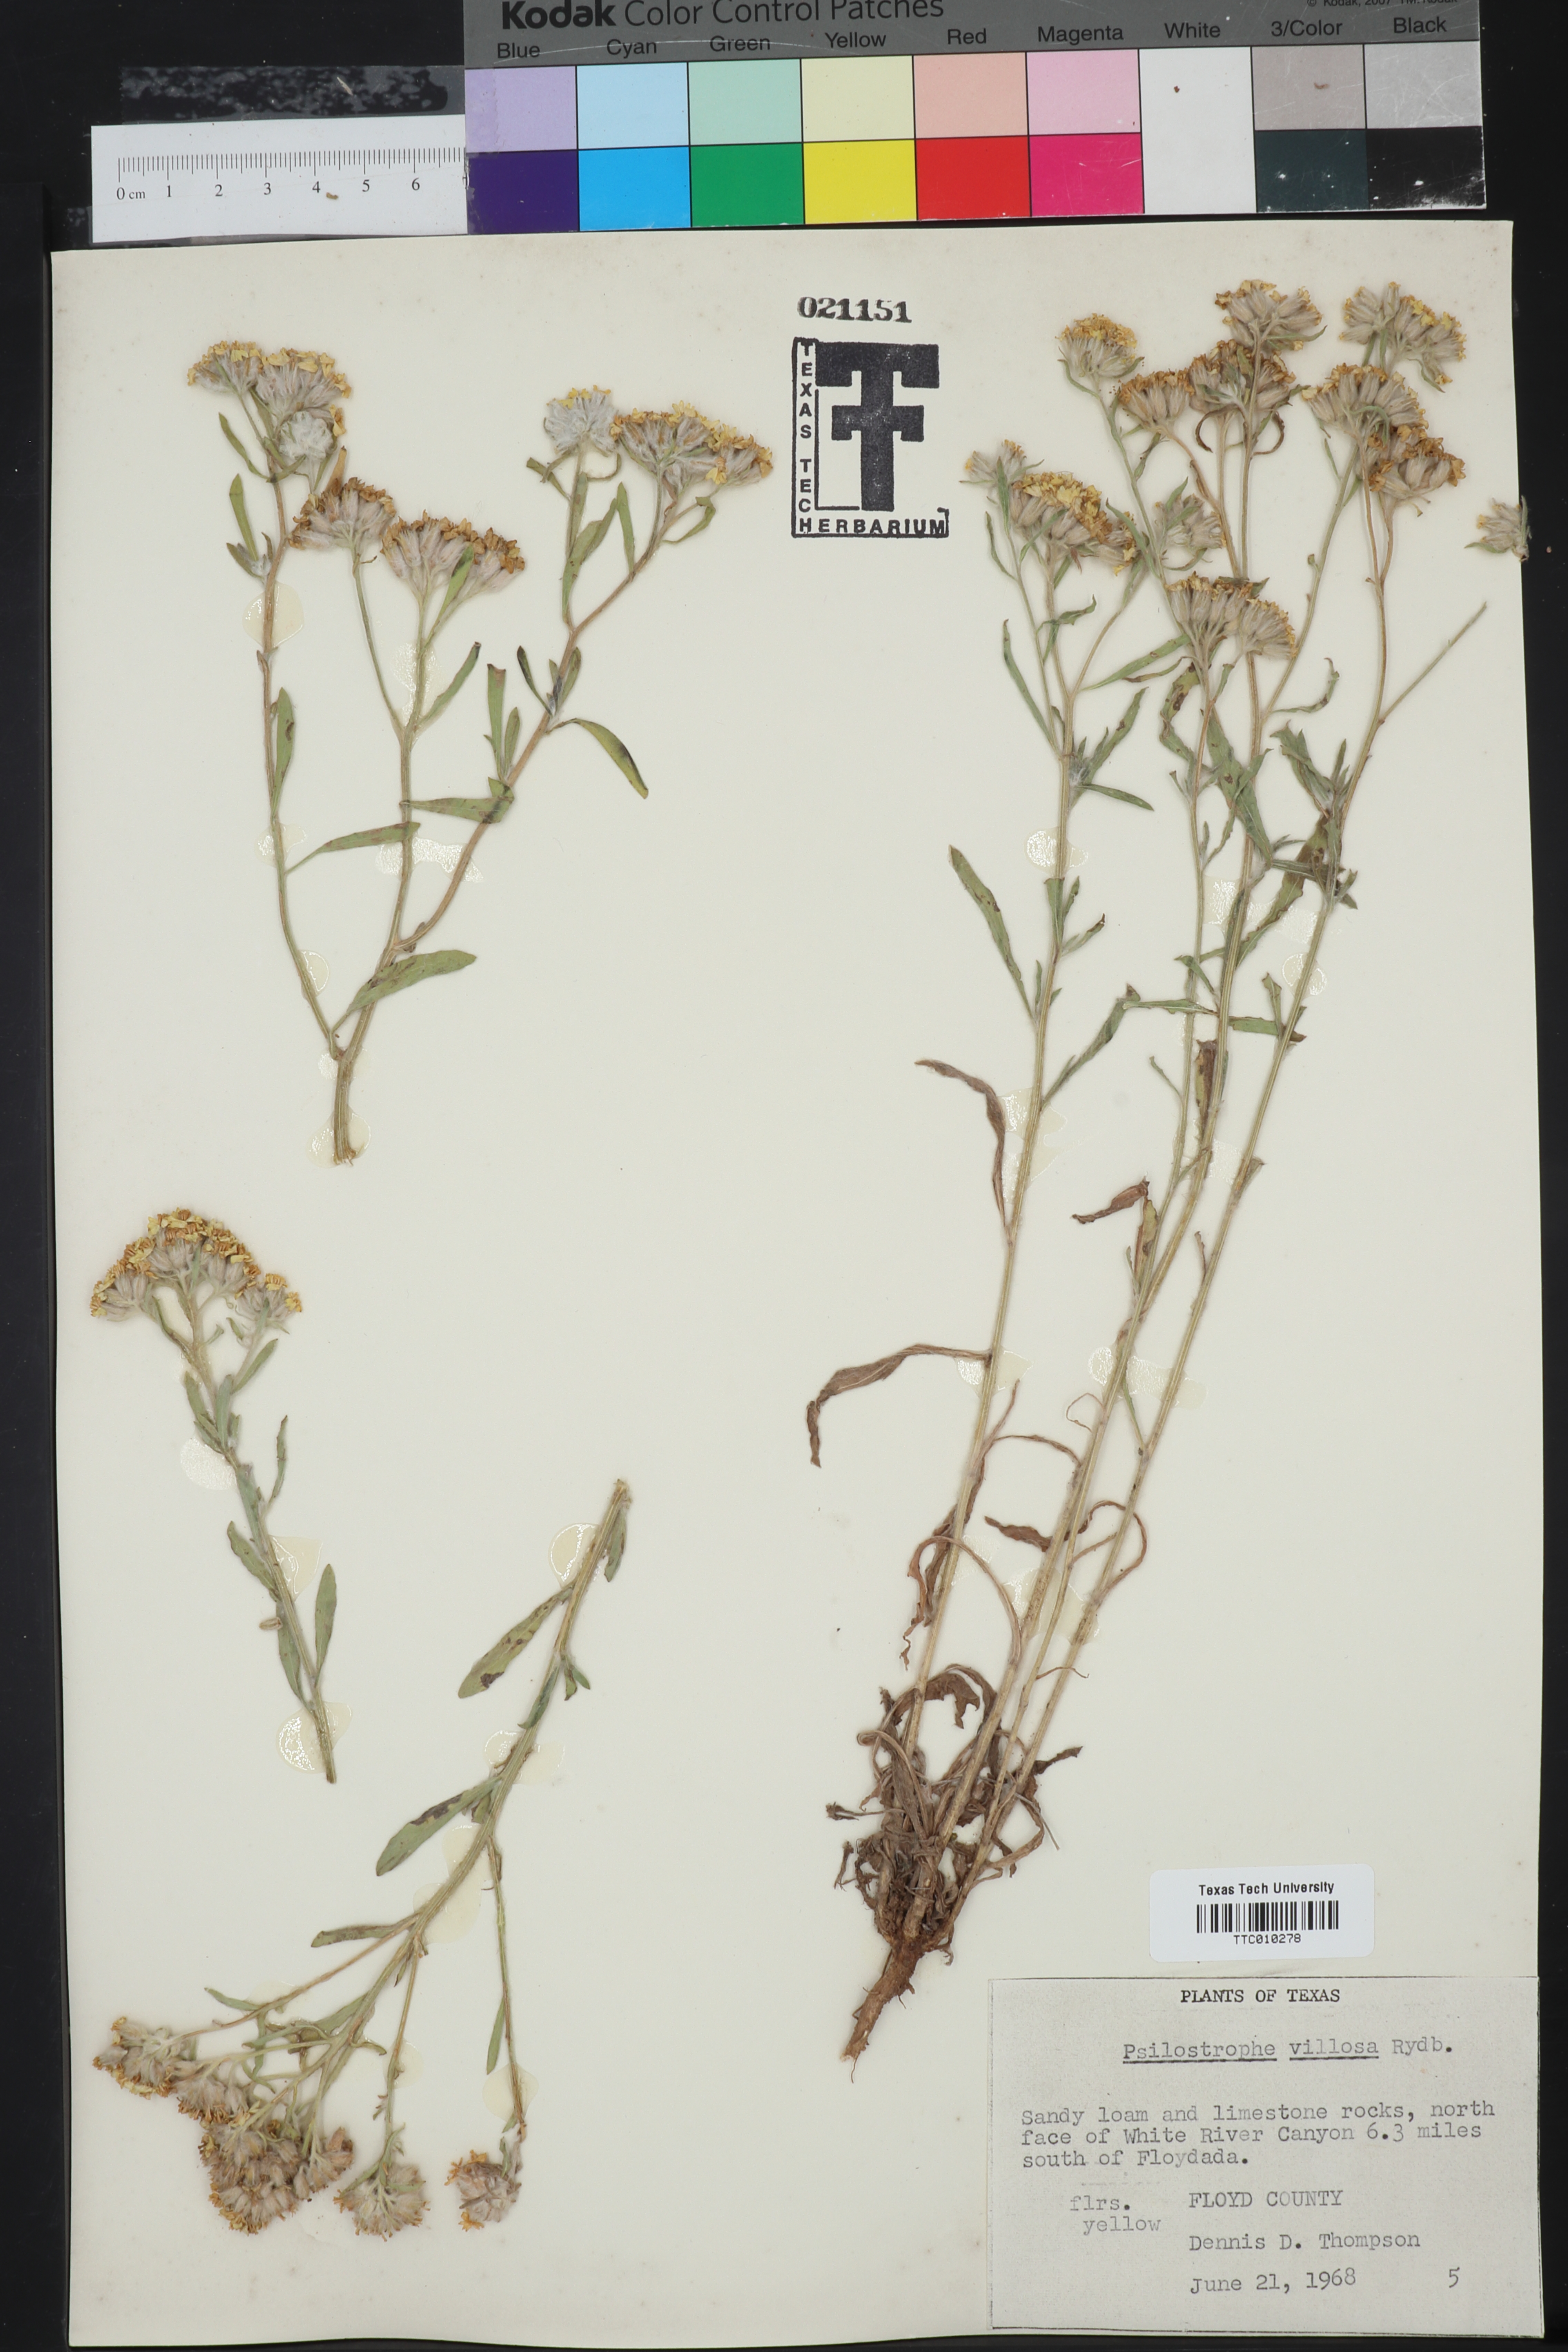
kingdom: Plantae
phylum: Tracheophyta
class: Magnoliopsida
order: Asterales
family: Asteraceae
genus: Psilostrophe
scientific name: Psilostrophe villosa
